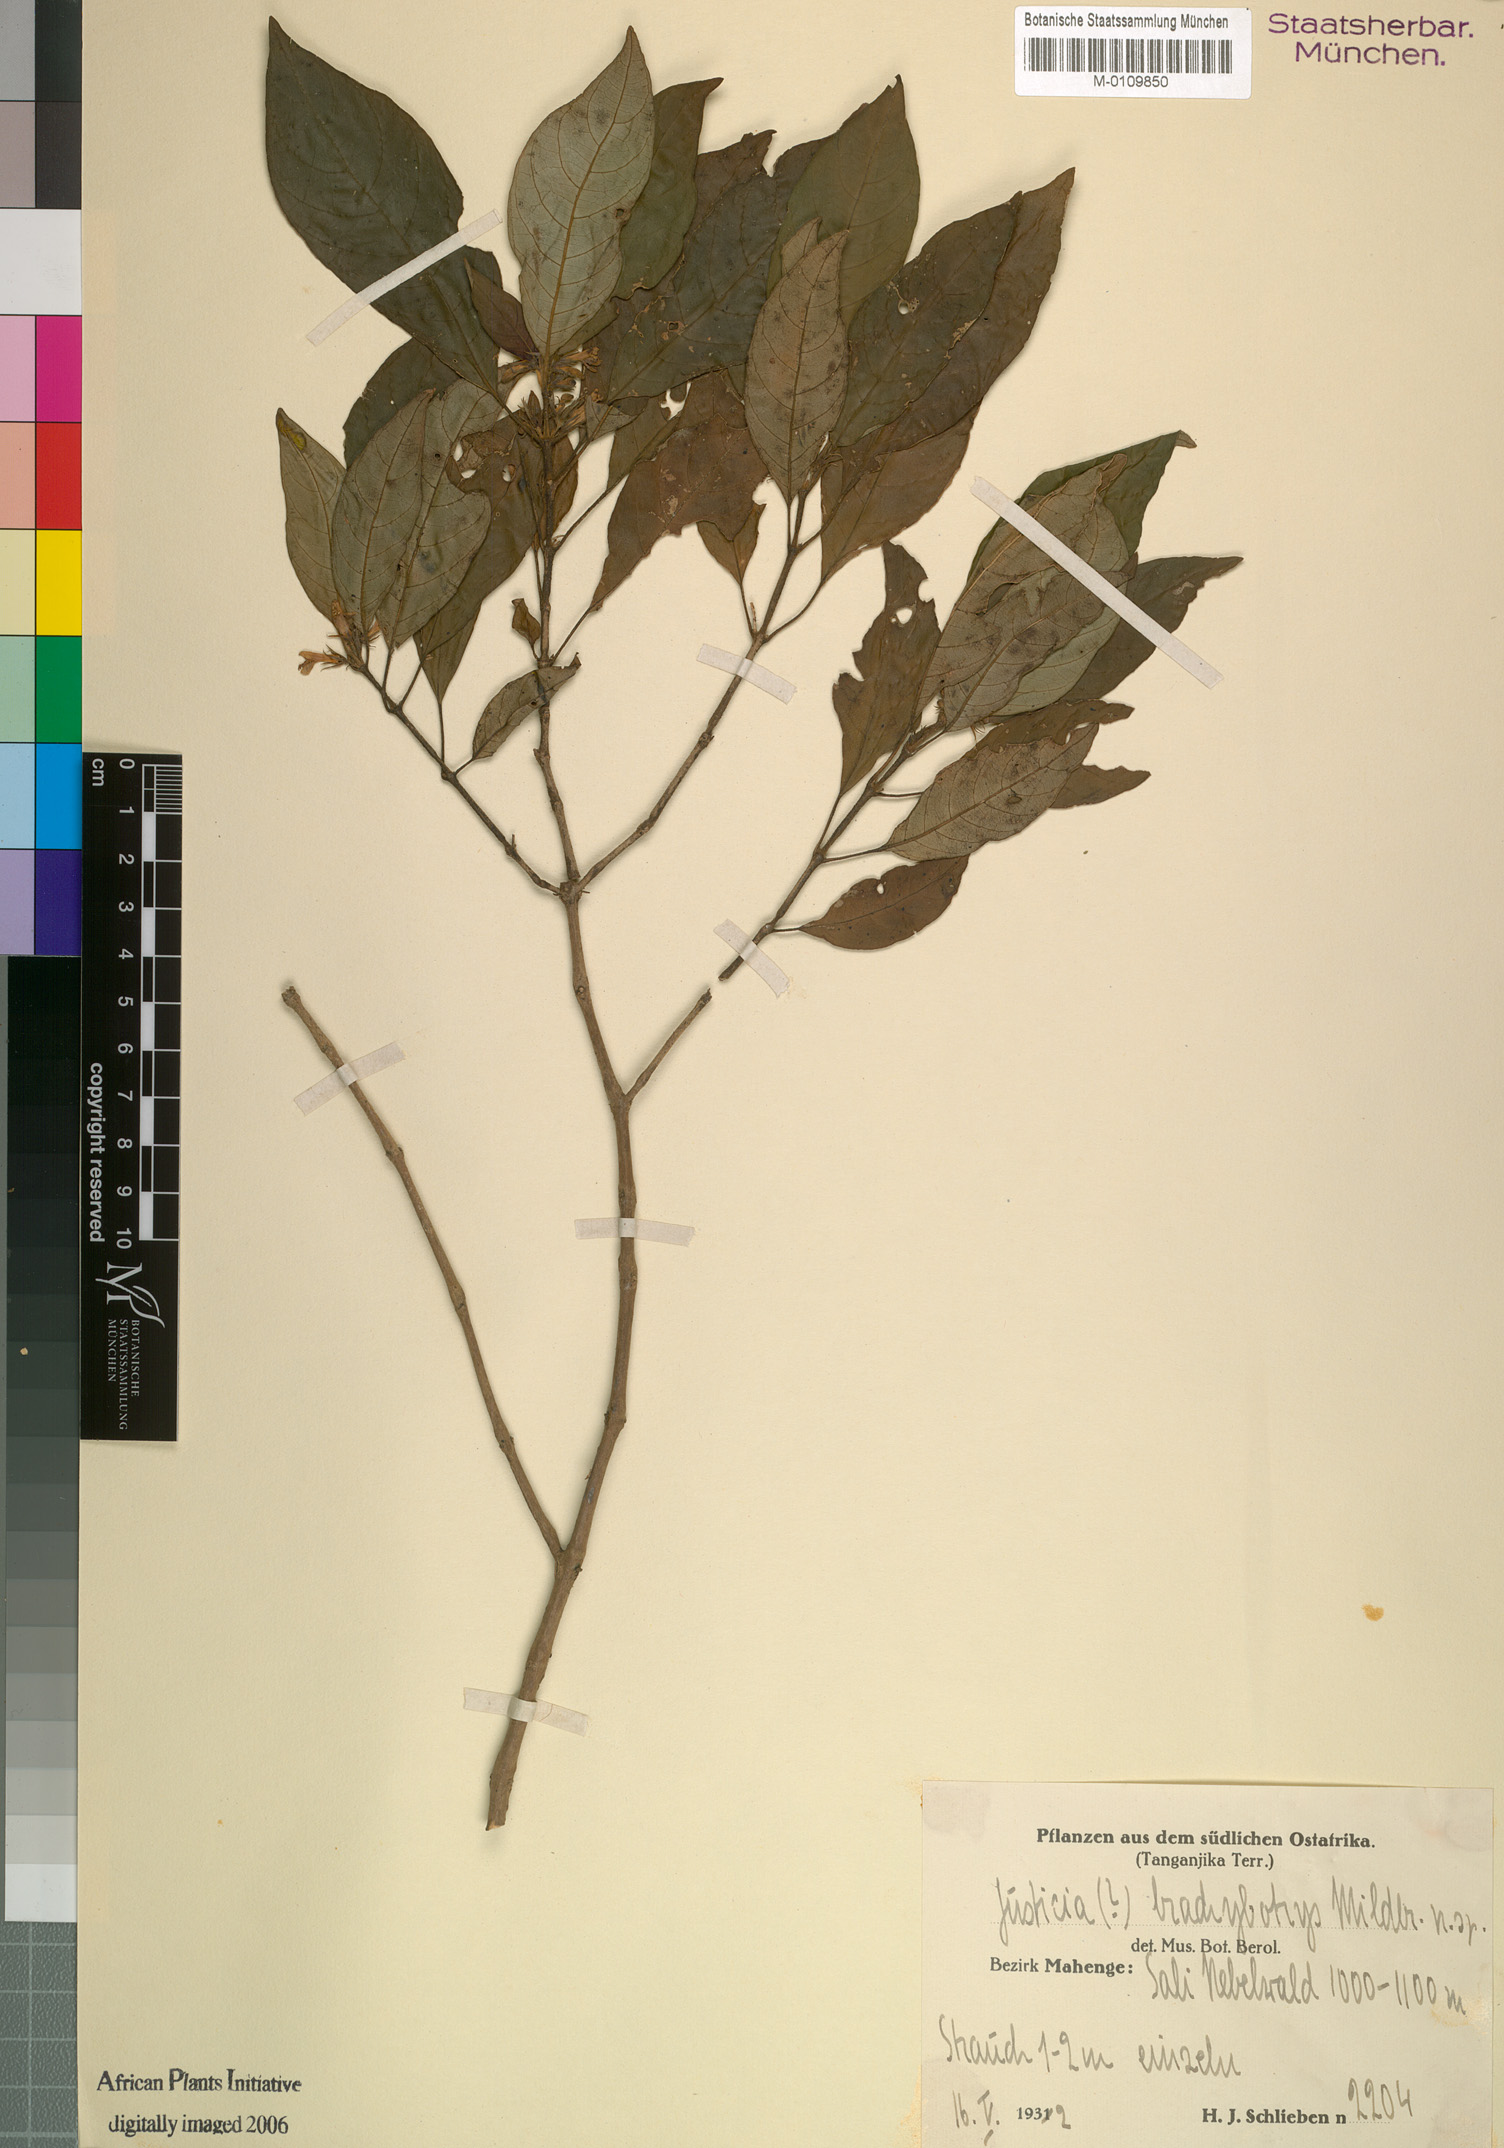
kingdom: Plantae
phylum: Tracheophyta
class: Magnoliopsida
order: Lamiales
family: Acanthaceae
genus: Justicia
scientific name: Justicia
